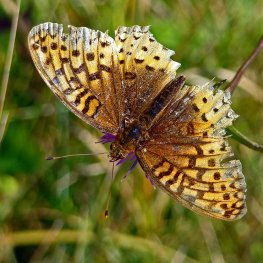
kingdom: Animalia
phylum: Arthropoda
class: Insecta
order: Lepidoptera
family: Nymphalidae
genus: Speyeria
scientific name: Speyeria cybele
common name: Great Spangled Fritillary
